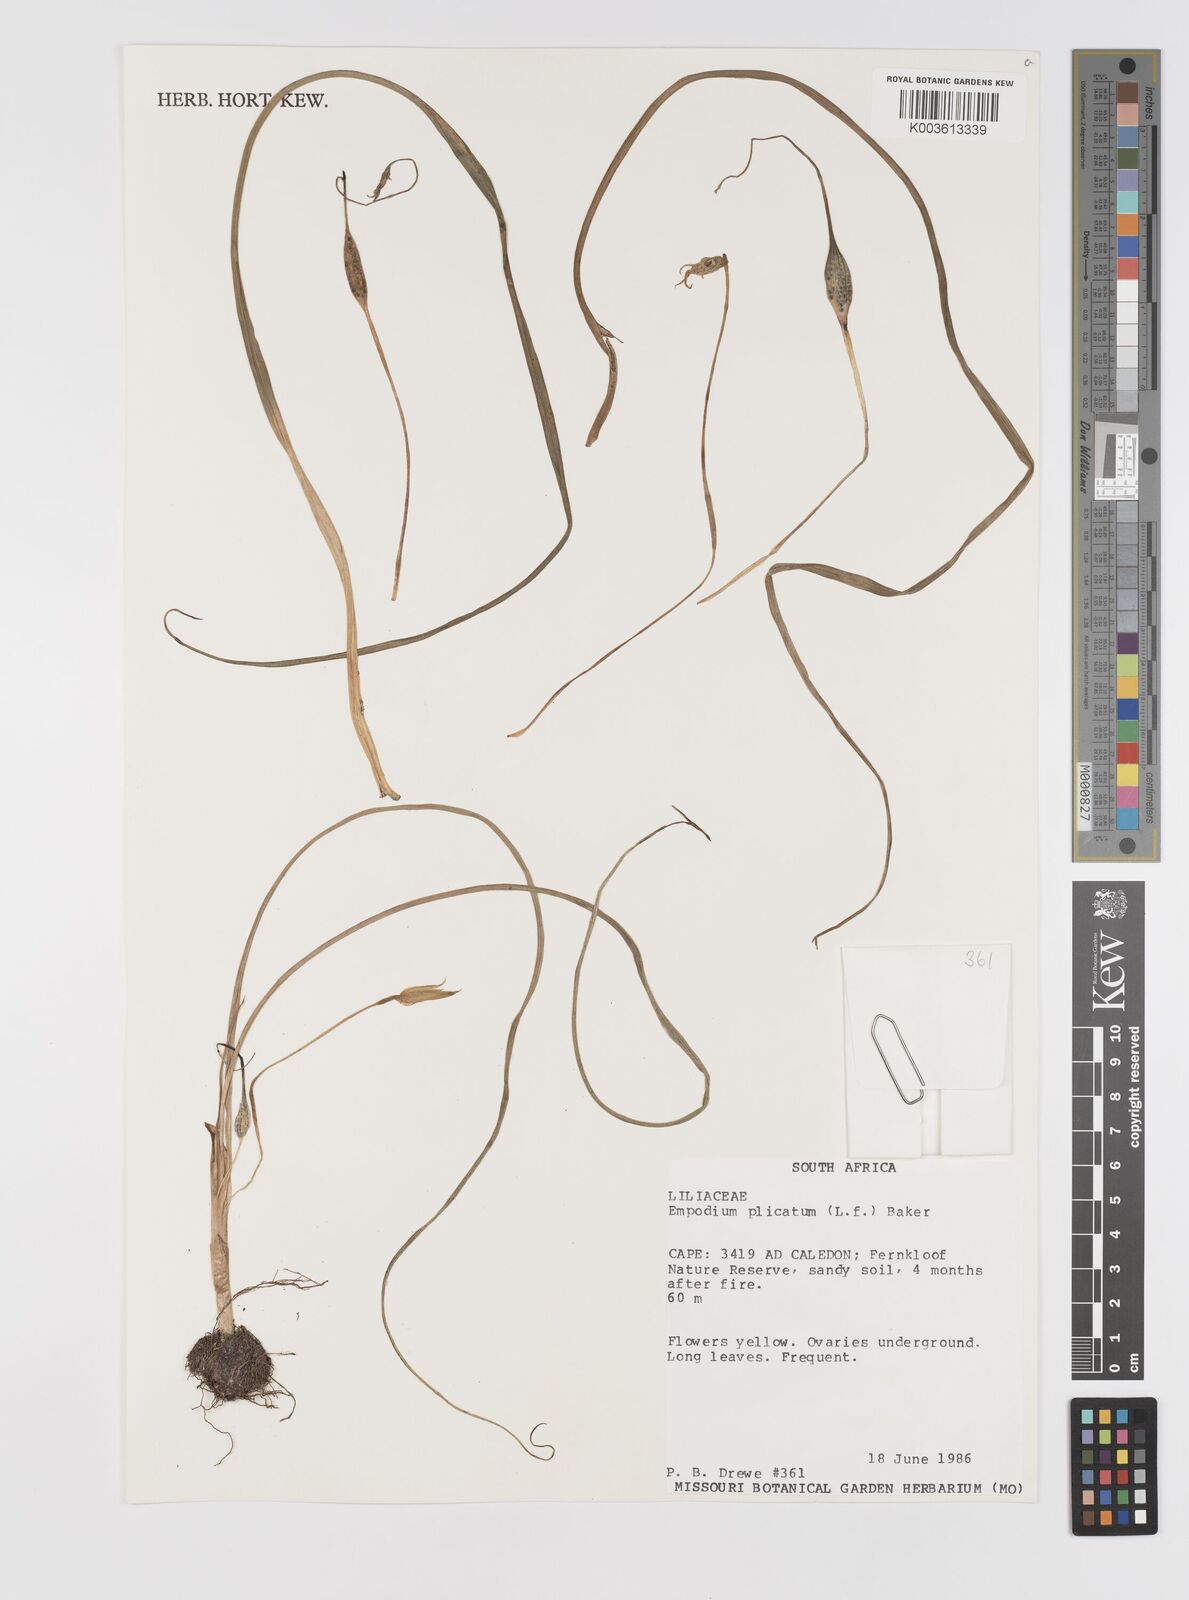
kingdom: Plantae
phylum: Tracheophyta
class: Liliopsida
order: Asparagales
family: Hypoxidaceae
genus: Empodium
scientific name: Empodium plicatum
